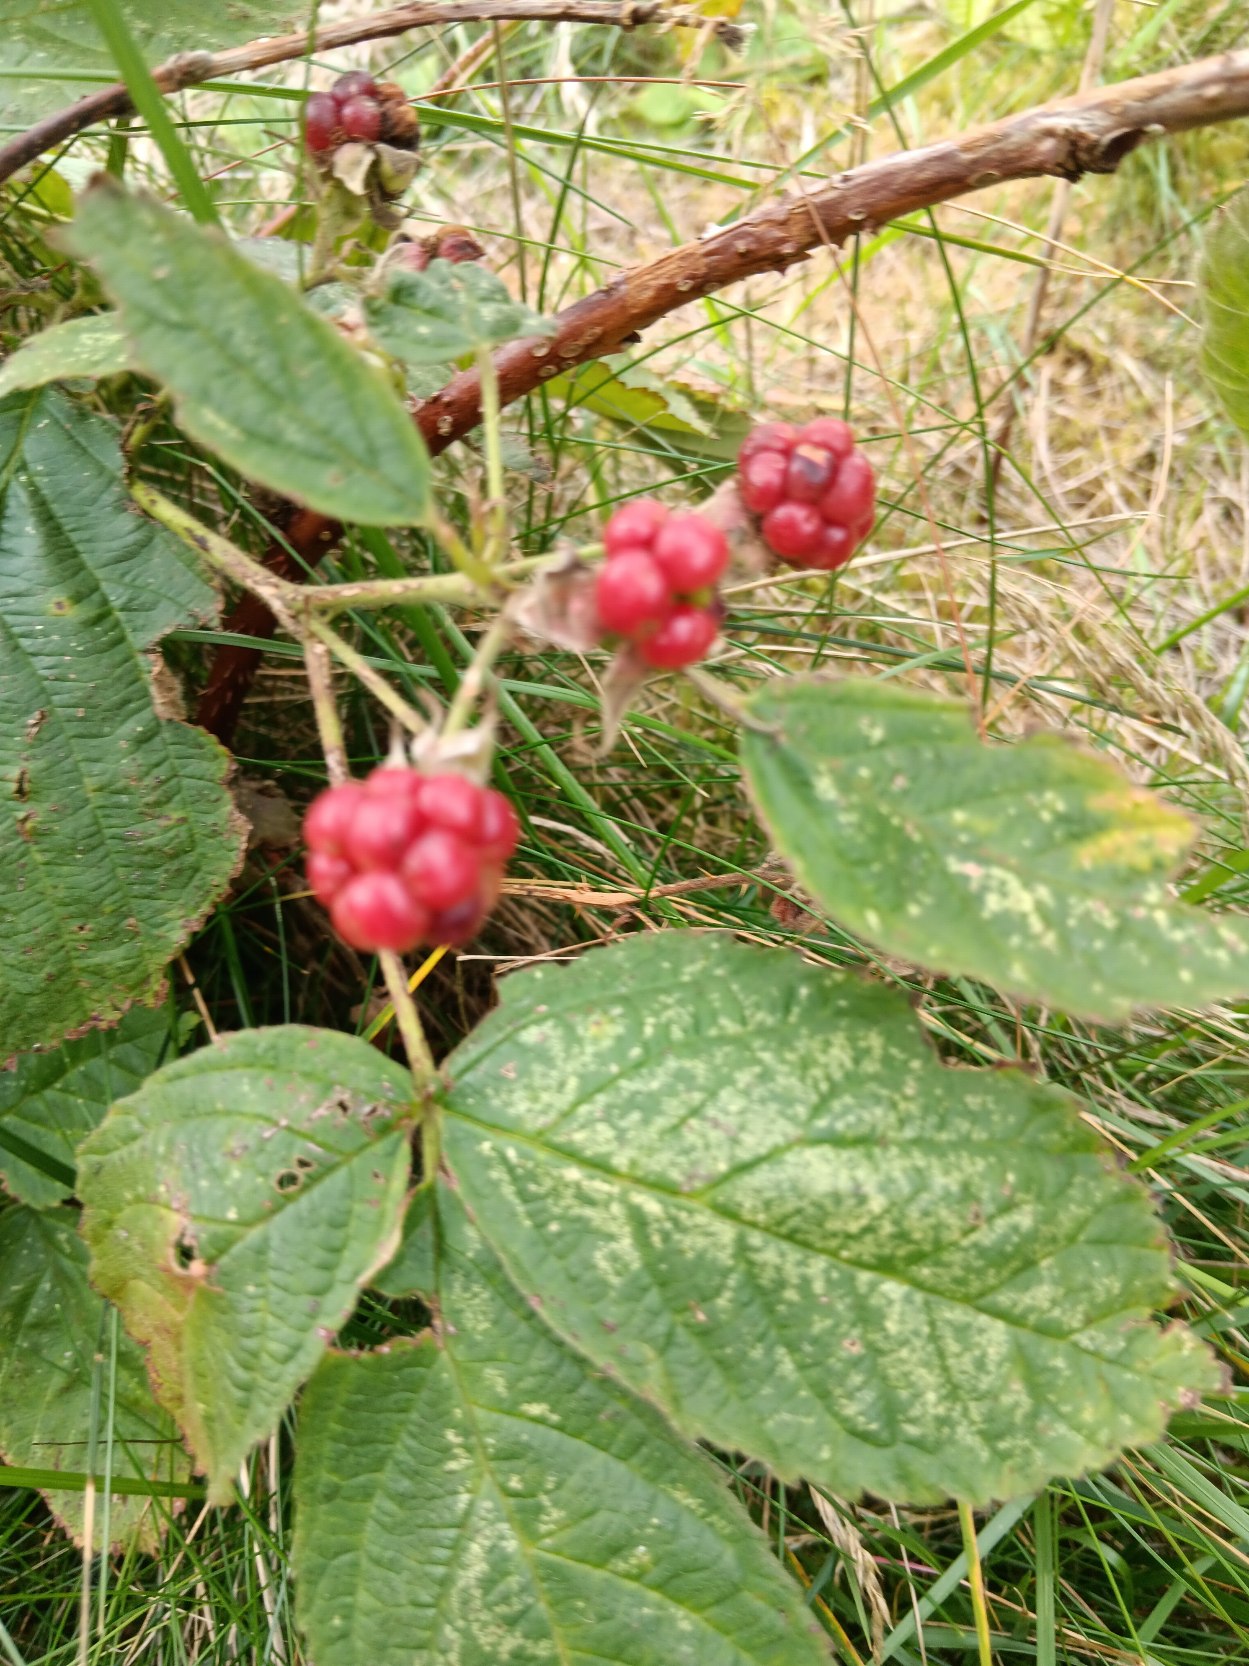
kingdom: Plantae
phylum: Tracheophyta
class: Magnoliopsida
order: Rosales
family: Rosaceae
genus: Rubus
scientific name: Rubus
